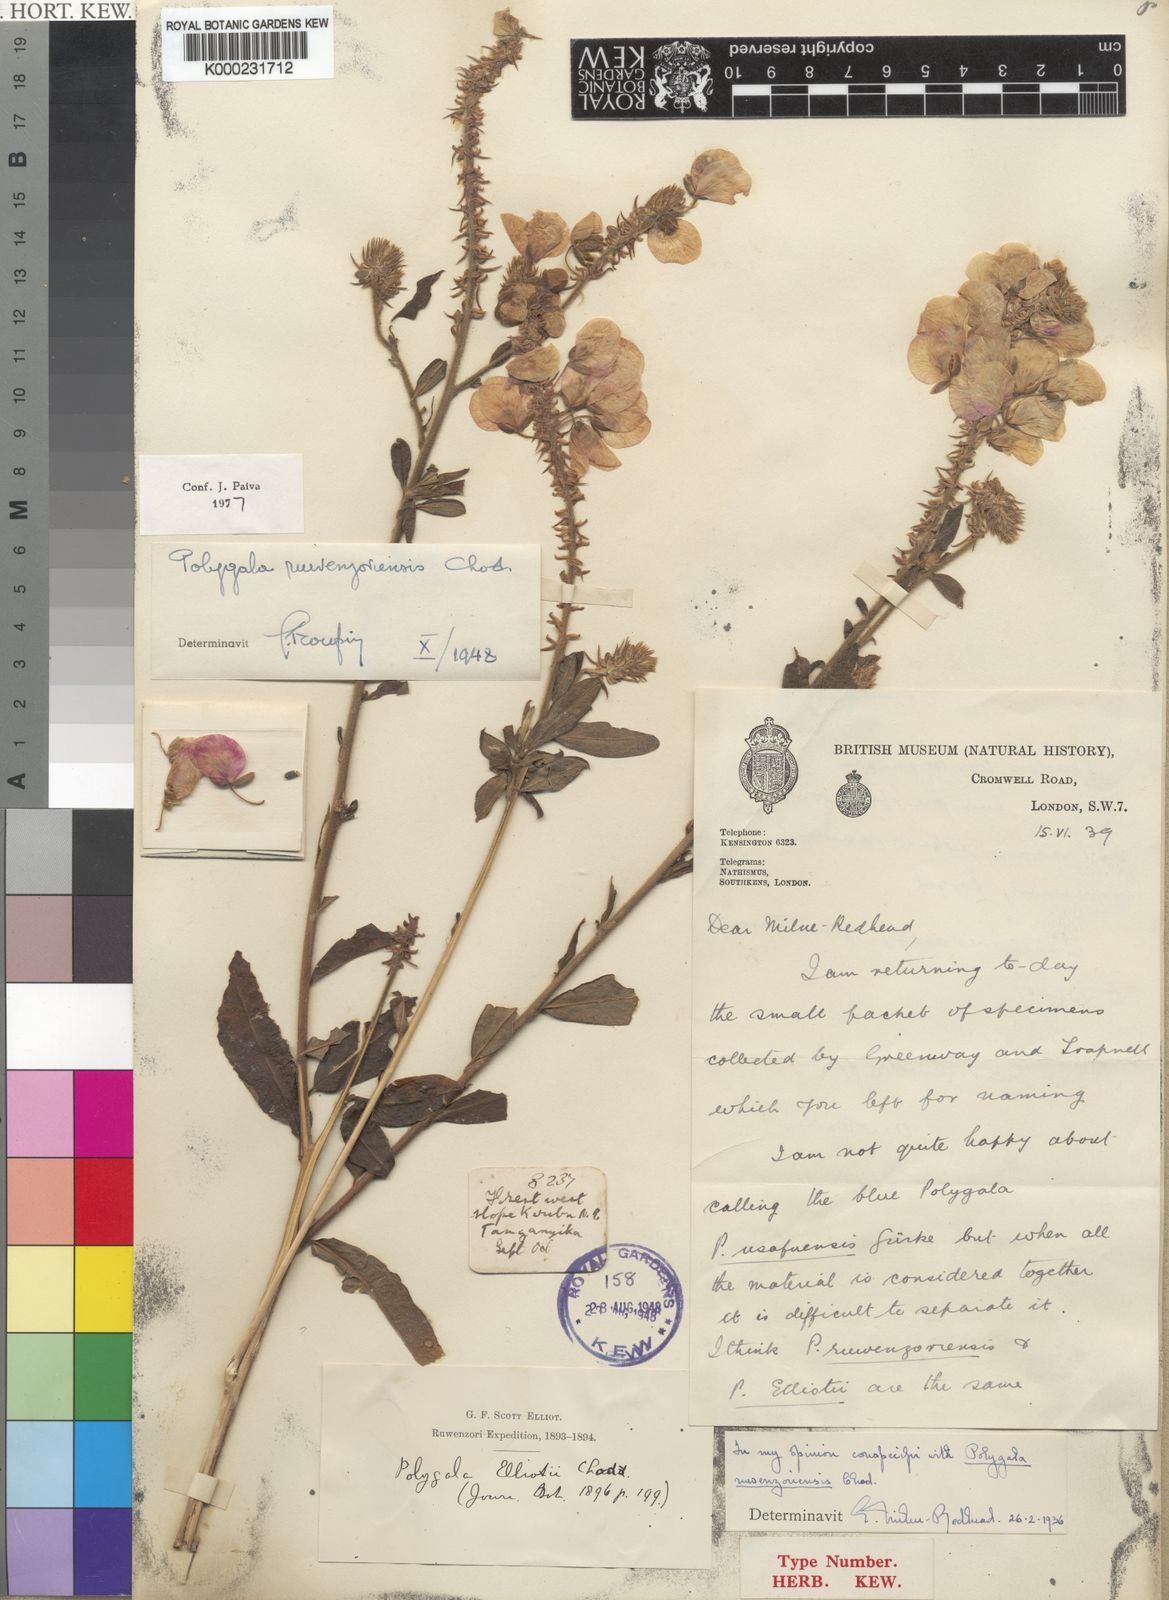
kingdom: Plantae
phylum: Tracheophyta
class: Magnoliopsida
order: Fabales
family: Polygalaceae
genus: Polygala
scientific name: Polygala ruwenzoriensis
